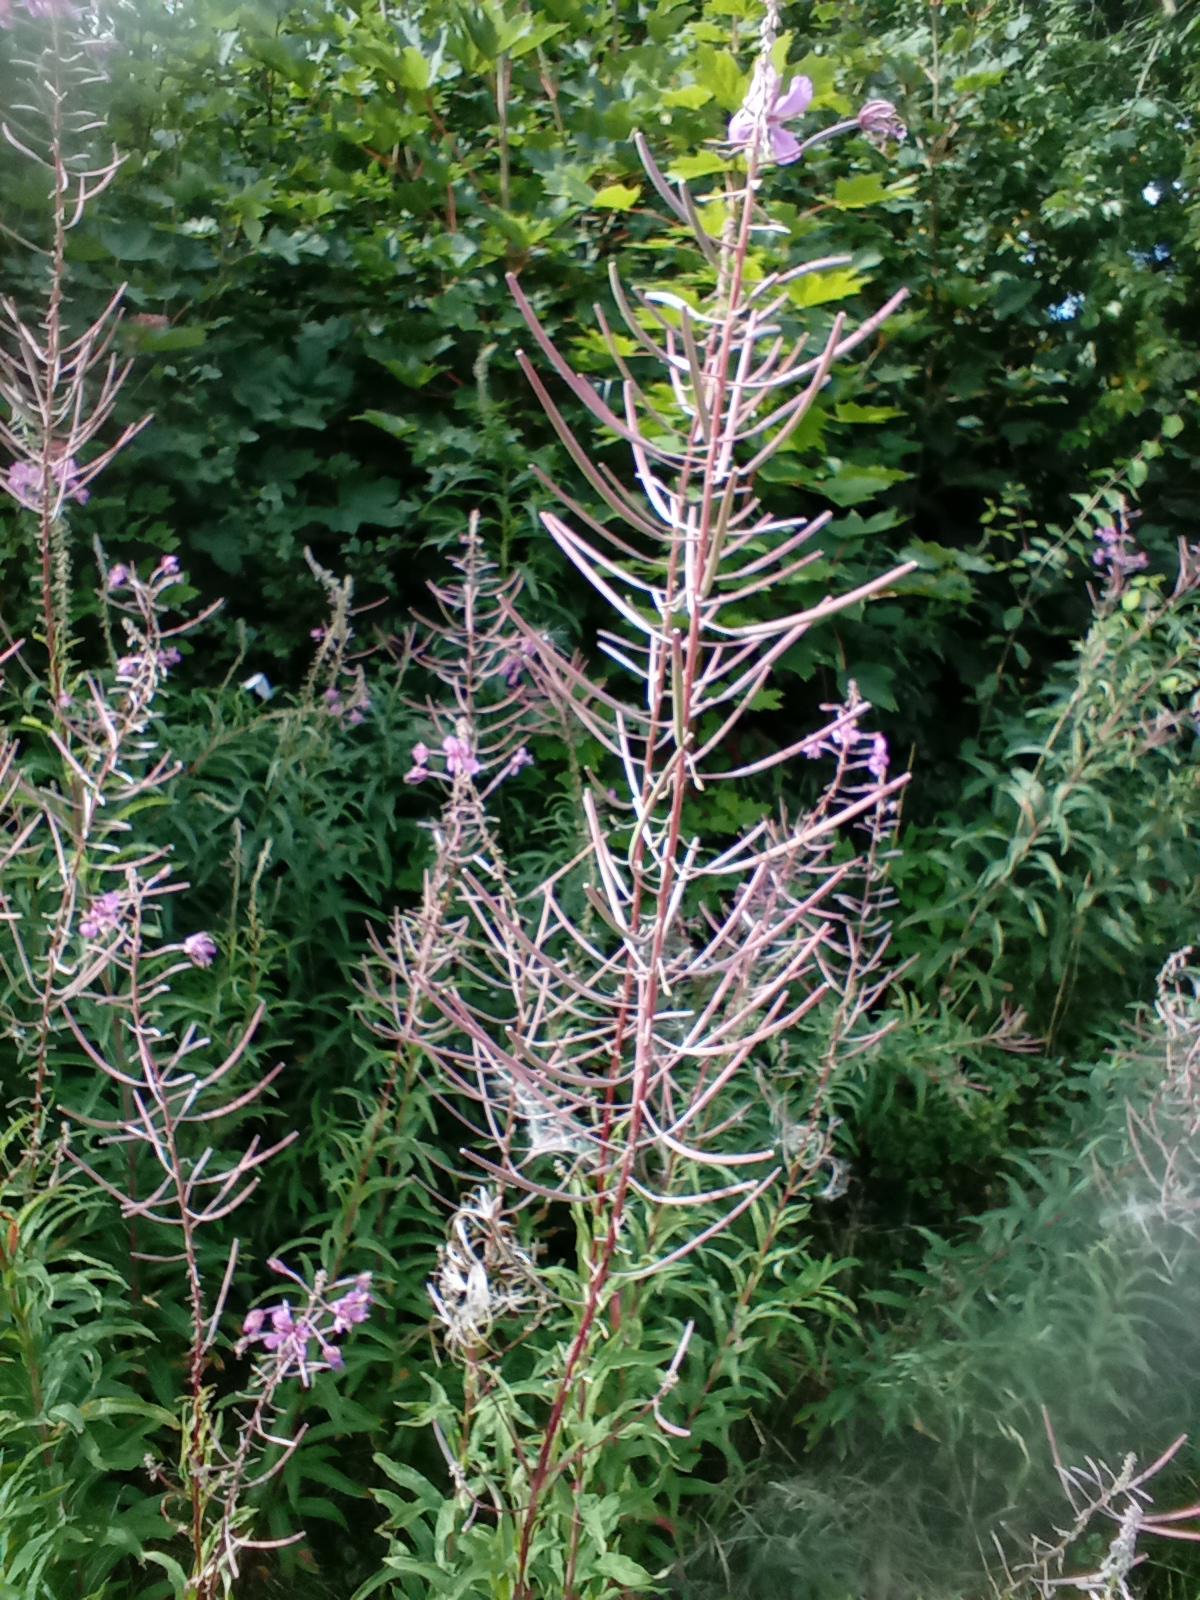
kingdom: Plantae
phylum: Tracheophyta
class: Magnoliopsida
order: Myrtales
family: Onagraceae
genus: Chamaenerion
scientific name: Chamaenerion angustifolium
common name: Gederams
